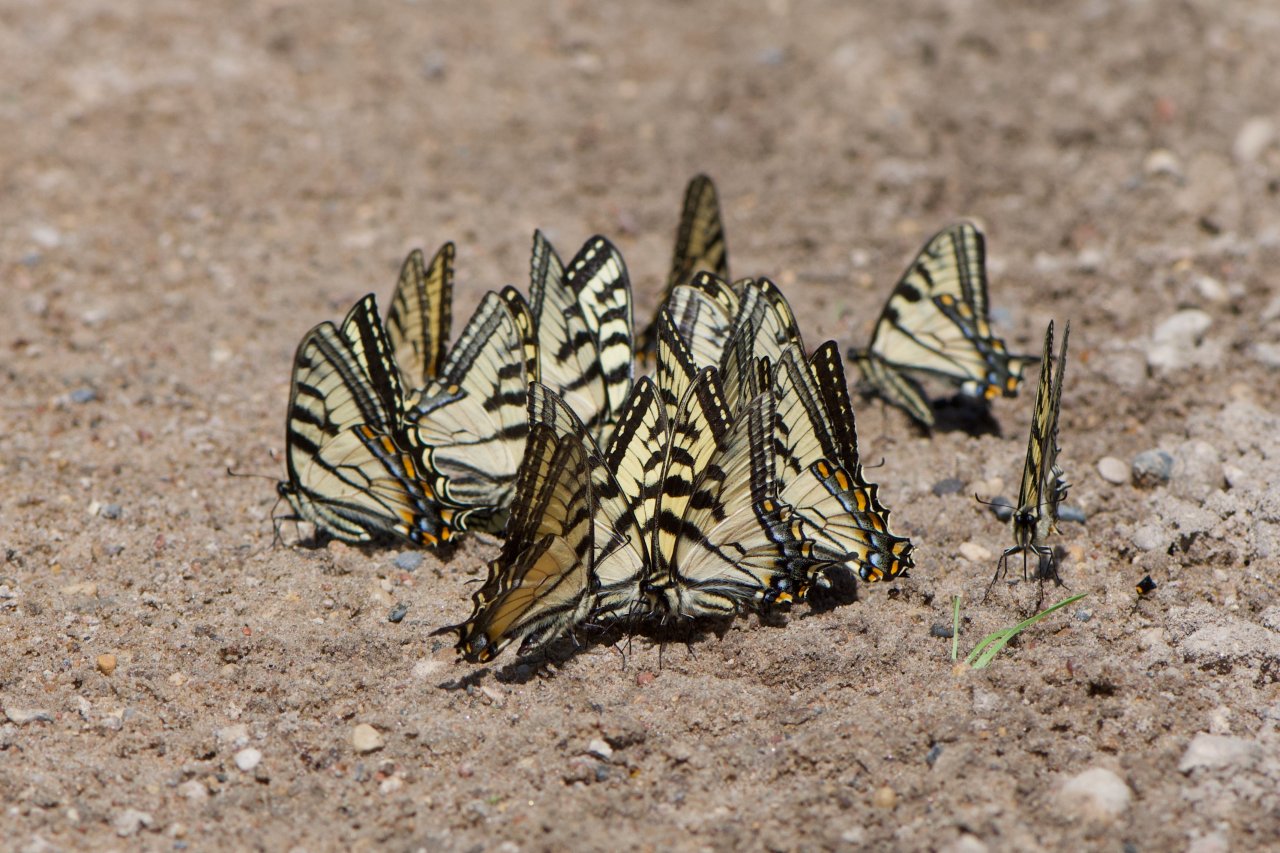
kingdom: Animalia
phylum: Arthropoda
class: Insecta
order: Lepidoptera
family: Papilionidae
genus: Pterourus
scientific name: Pterourus canadensis
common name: Canadian Tiger Swallowtail
